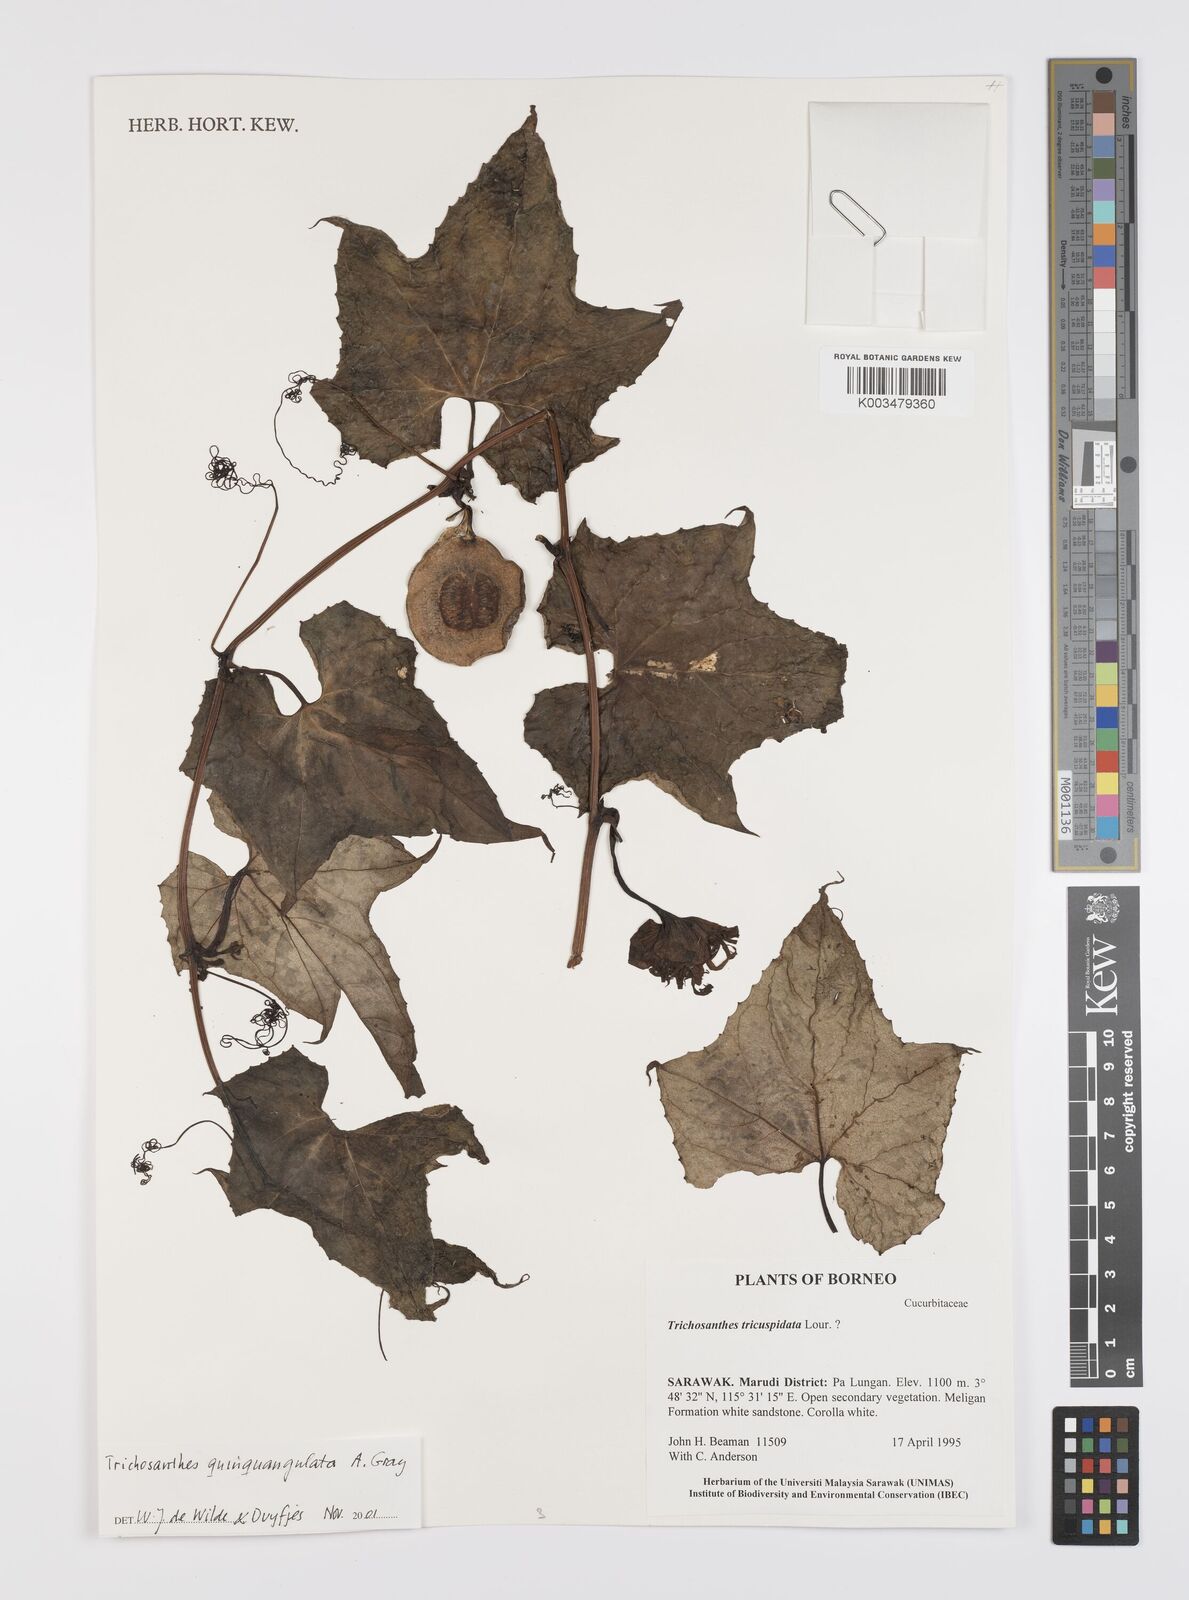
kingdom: Plantae
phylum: Tracheophyta
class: Magnoliopsida
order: Cucurbitales
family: Cucurbitaceae
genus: Trichosanthes
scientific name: Trichosanthes tricuspidata
